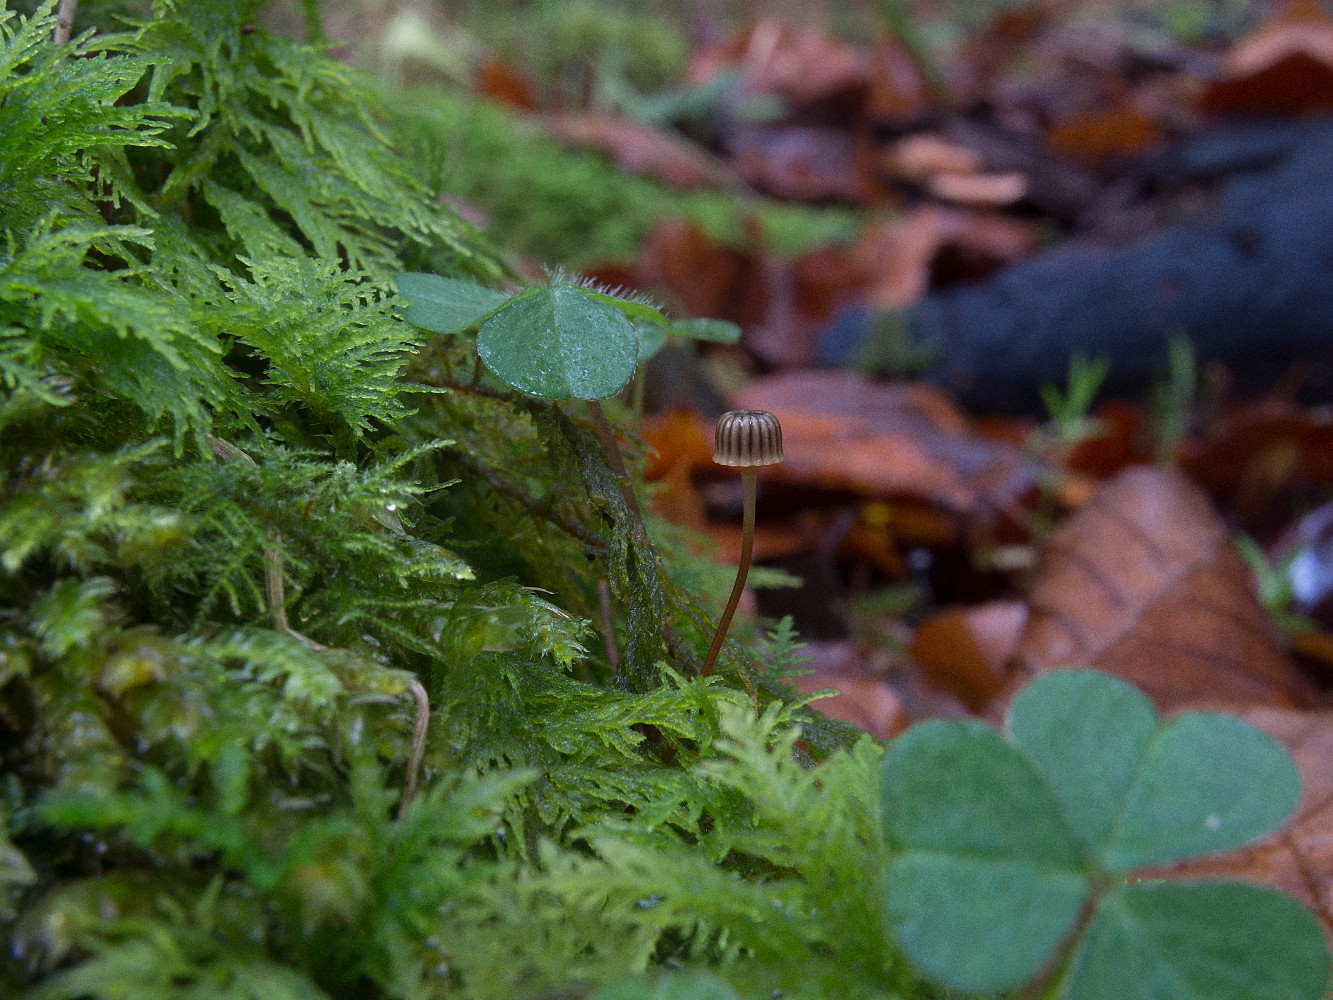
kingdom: Fungi
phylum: Basidiomycota
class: Agaricomycetes
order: Agaricales
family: Mycenaceae
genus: Mycena
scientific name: Mycena picta
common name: kantet huesvamp
